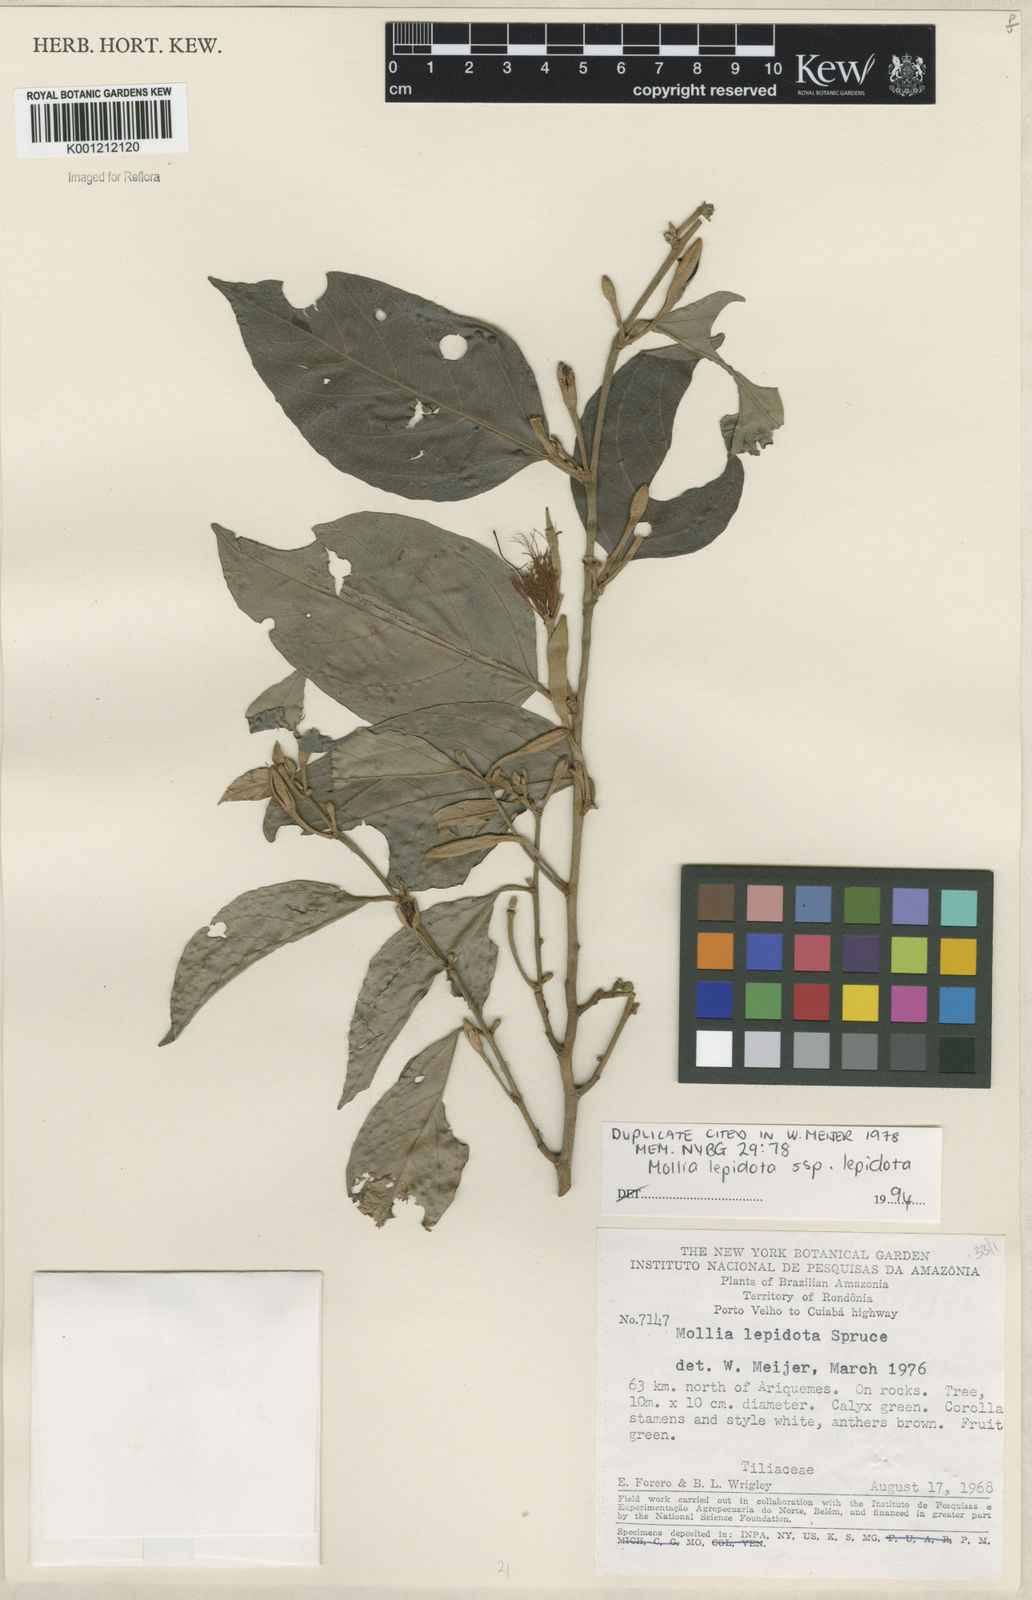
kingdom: Plantae
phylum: Tracheophyta
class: Magnoliopsida
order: Malvales
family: Malvaceae
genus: Mollia
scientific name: Mollia lepidota
